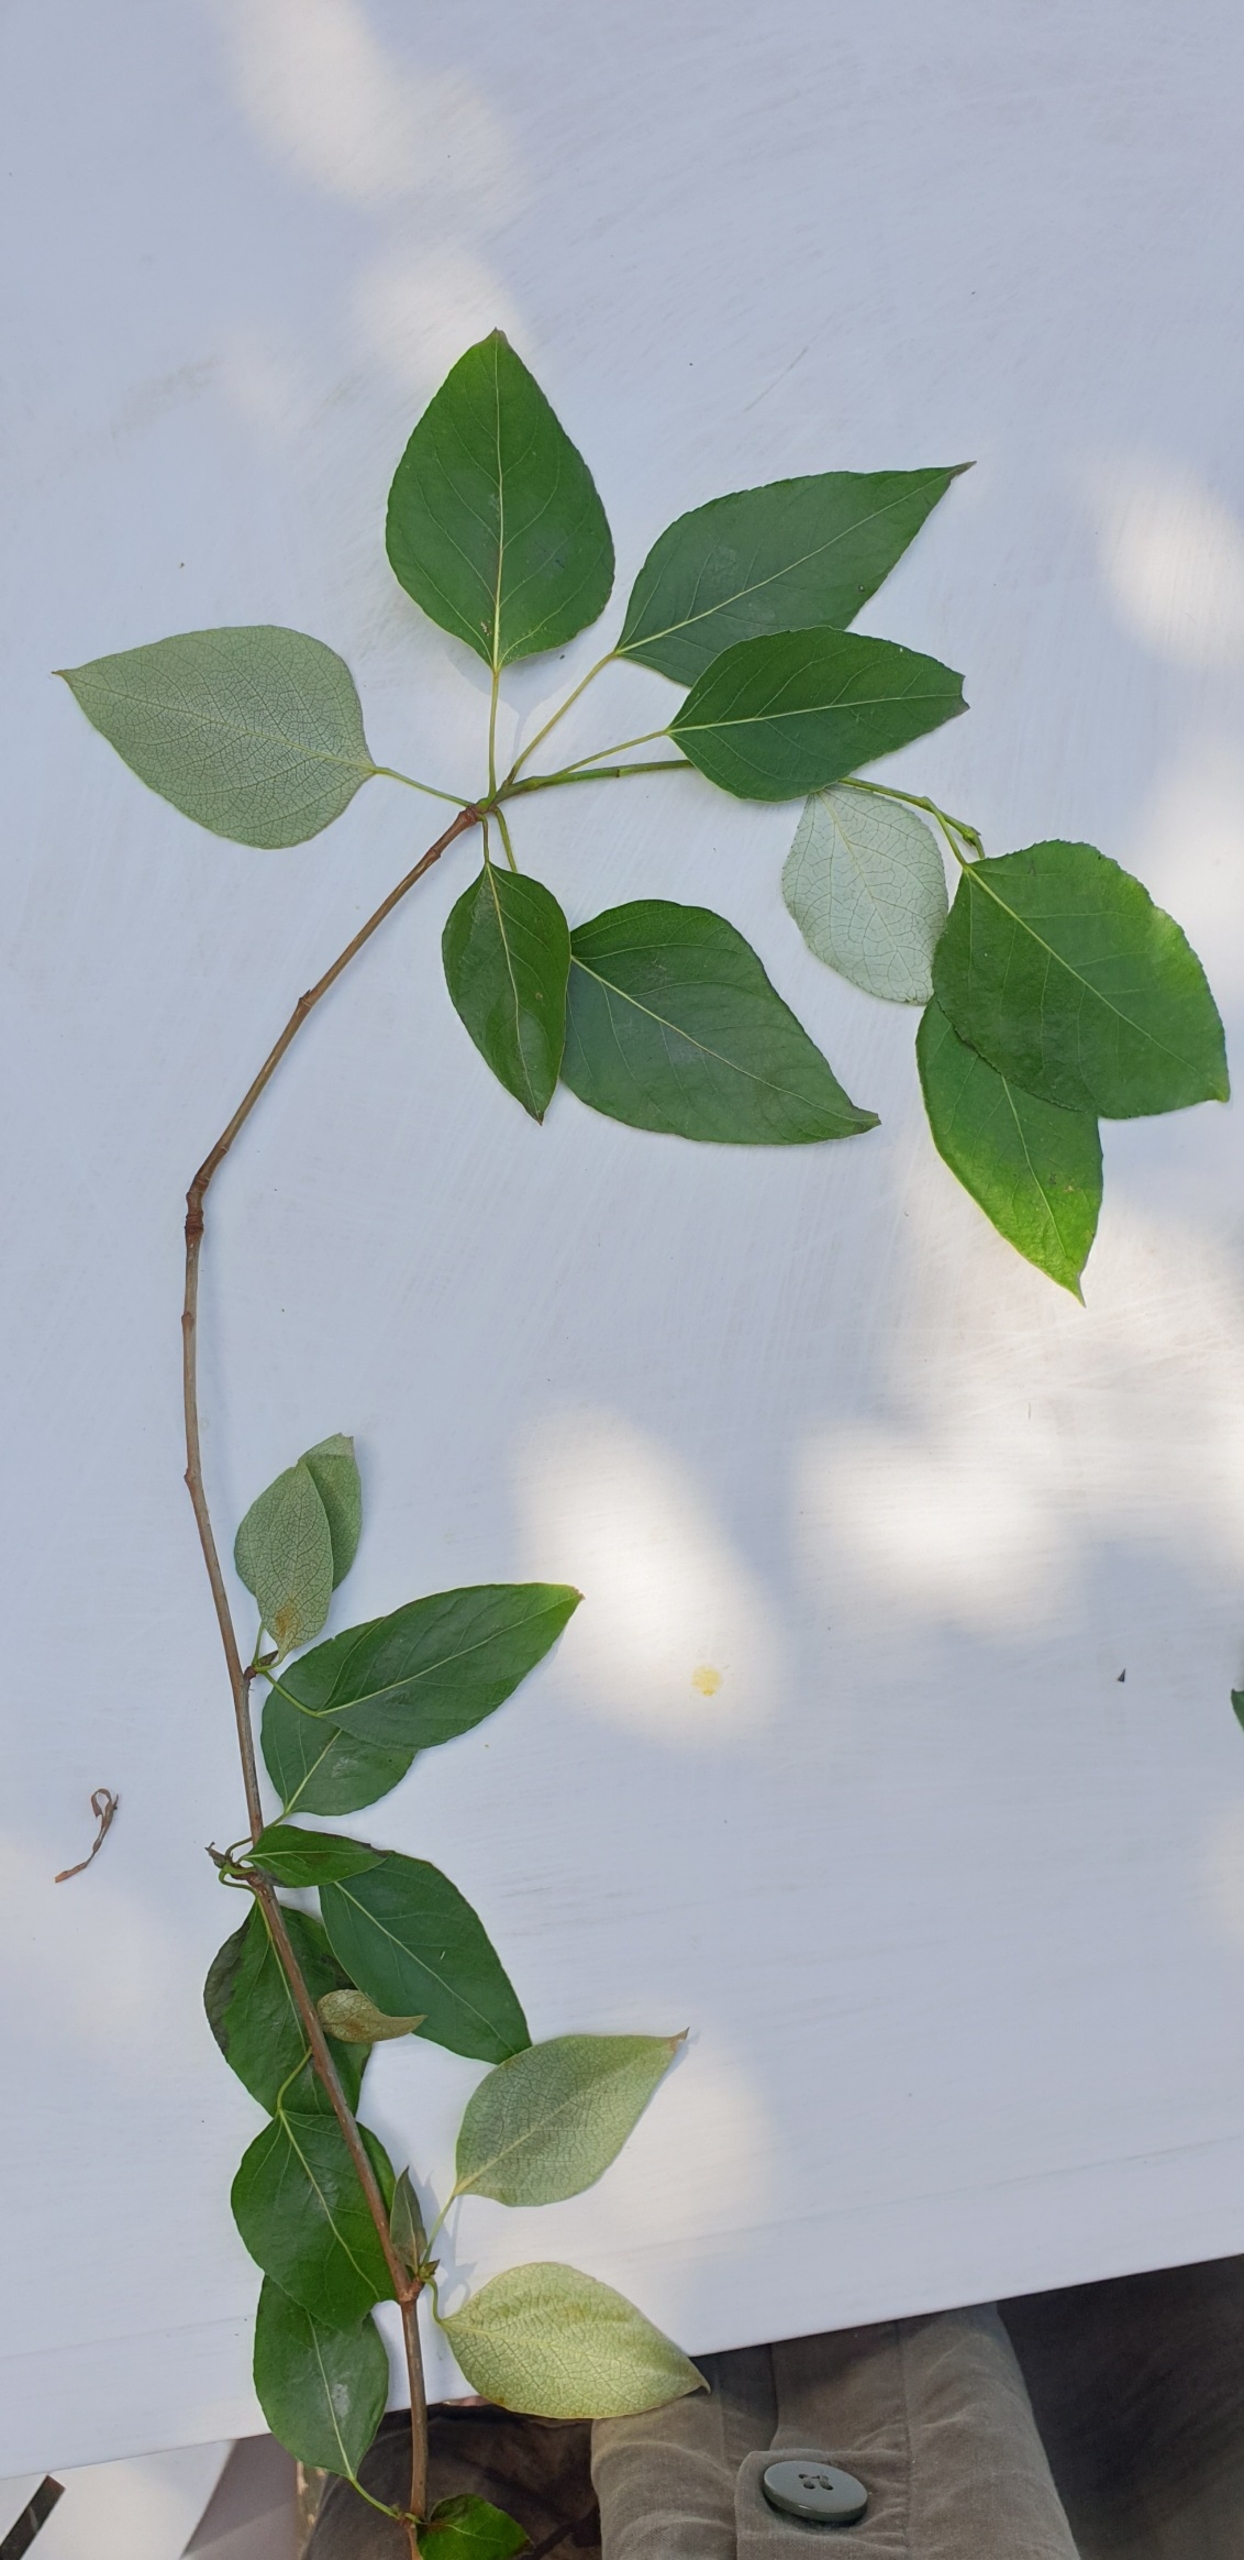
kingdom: Plantae
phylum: Tracheophyta
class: Magnoliopsida
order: Malpighiales
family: Salicaceae
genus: Populus
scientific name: Populus trichocarpa
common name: Vestamerikansk poppel
